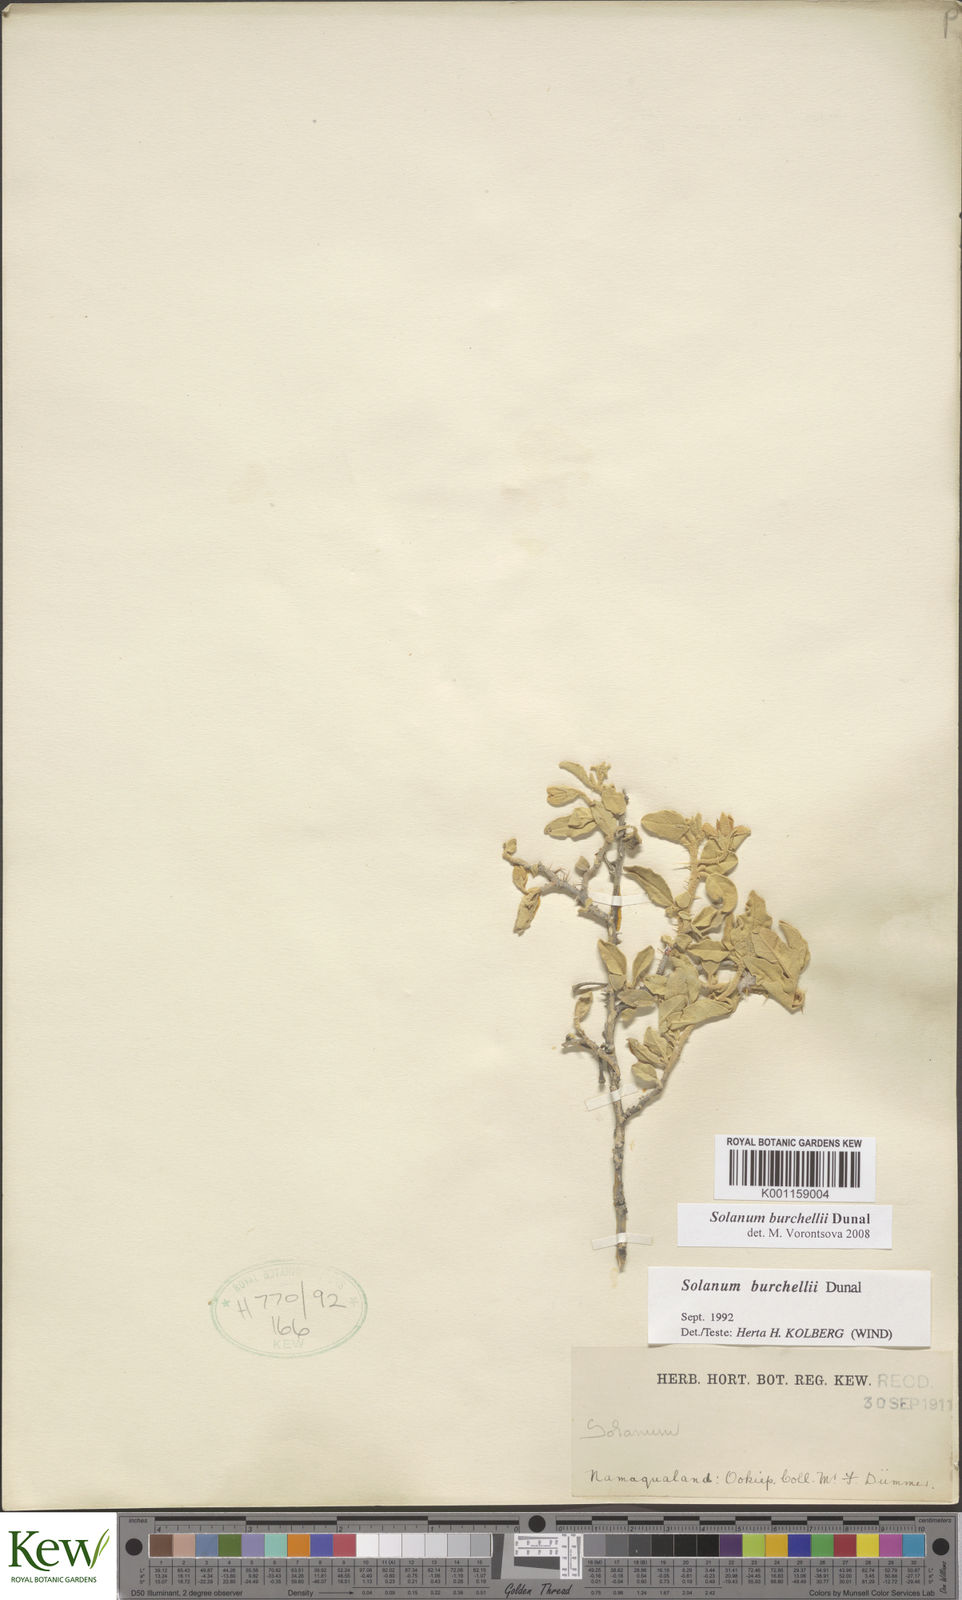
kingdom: Plantae
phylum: Tracheophyta
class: Magnoliopsida
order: Solanales
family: Solanaceae
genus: Solanum
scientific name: Solanum burchellii
